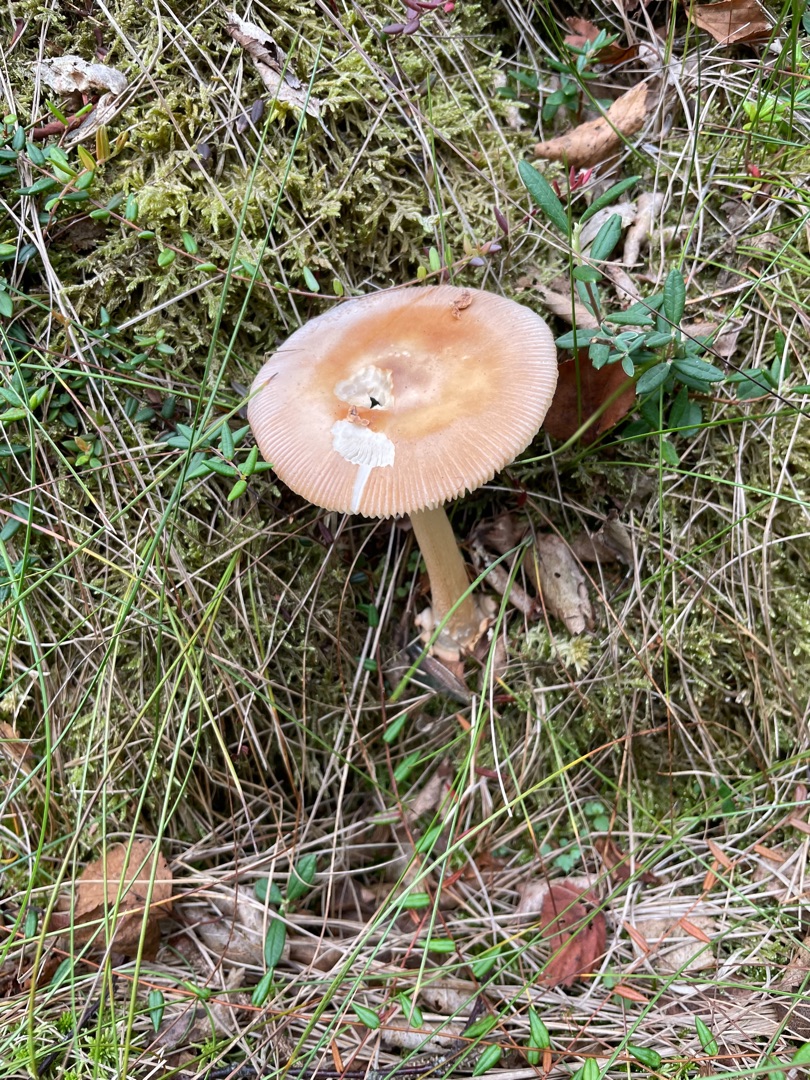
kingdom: Fungi
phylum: Basidiomycota
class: Agaricomycetes
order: Agaricales
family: Amanitaceae
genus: Amanita
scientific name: Amanita fulva
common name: Brun kam-fluesvamp
